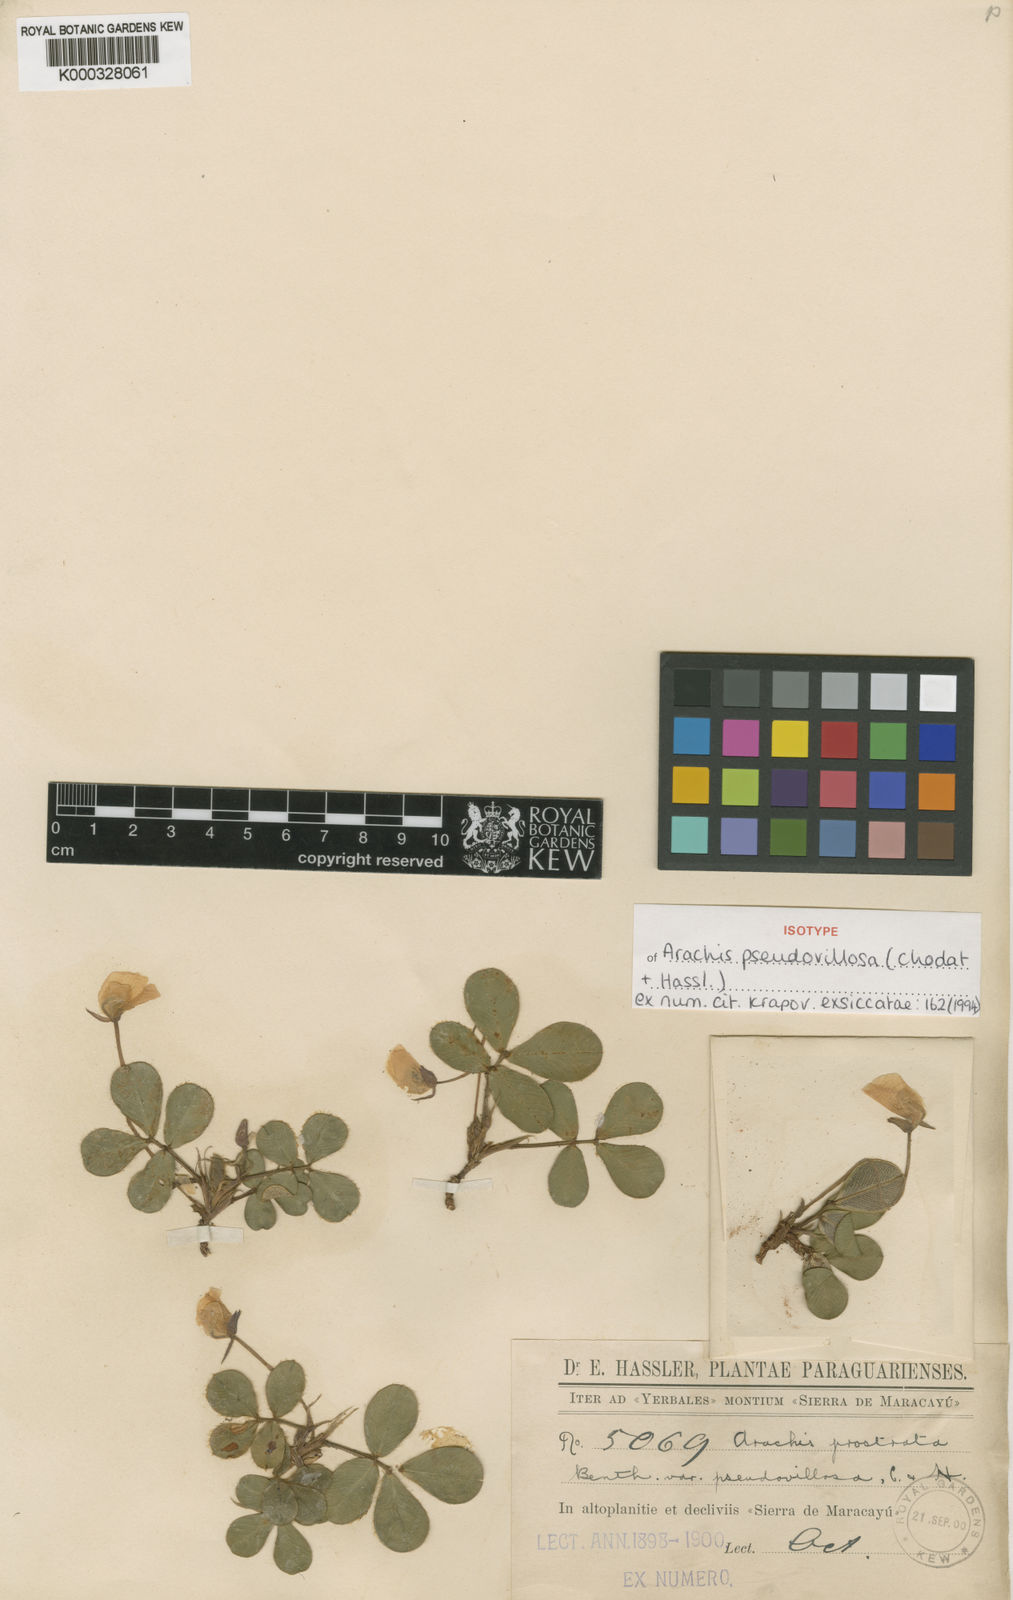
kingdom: Plantae
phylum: Tracheophyta
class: Magnoliopsida
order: Fabales
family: Fabaceae
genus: Arachis
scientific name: Arachis pseudovillosa
